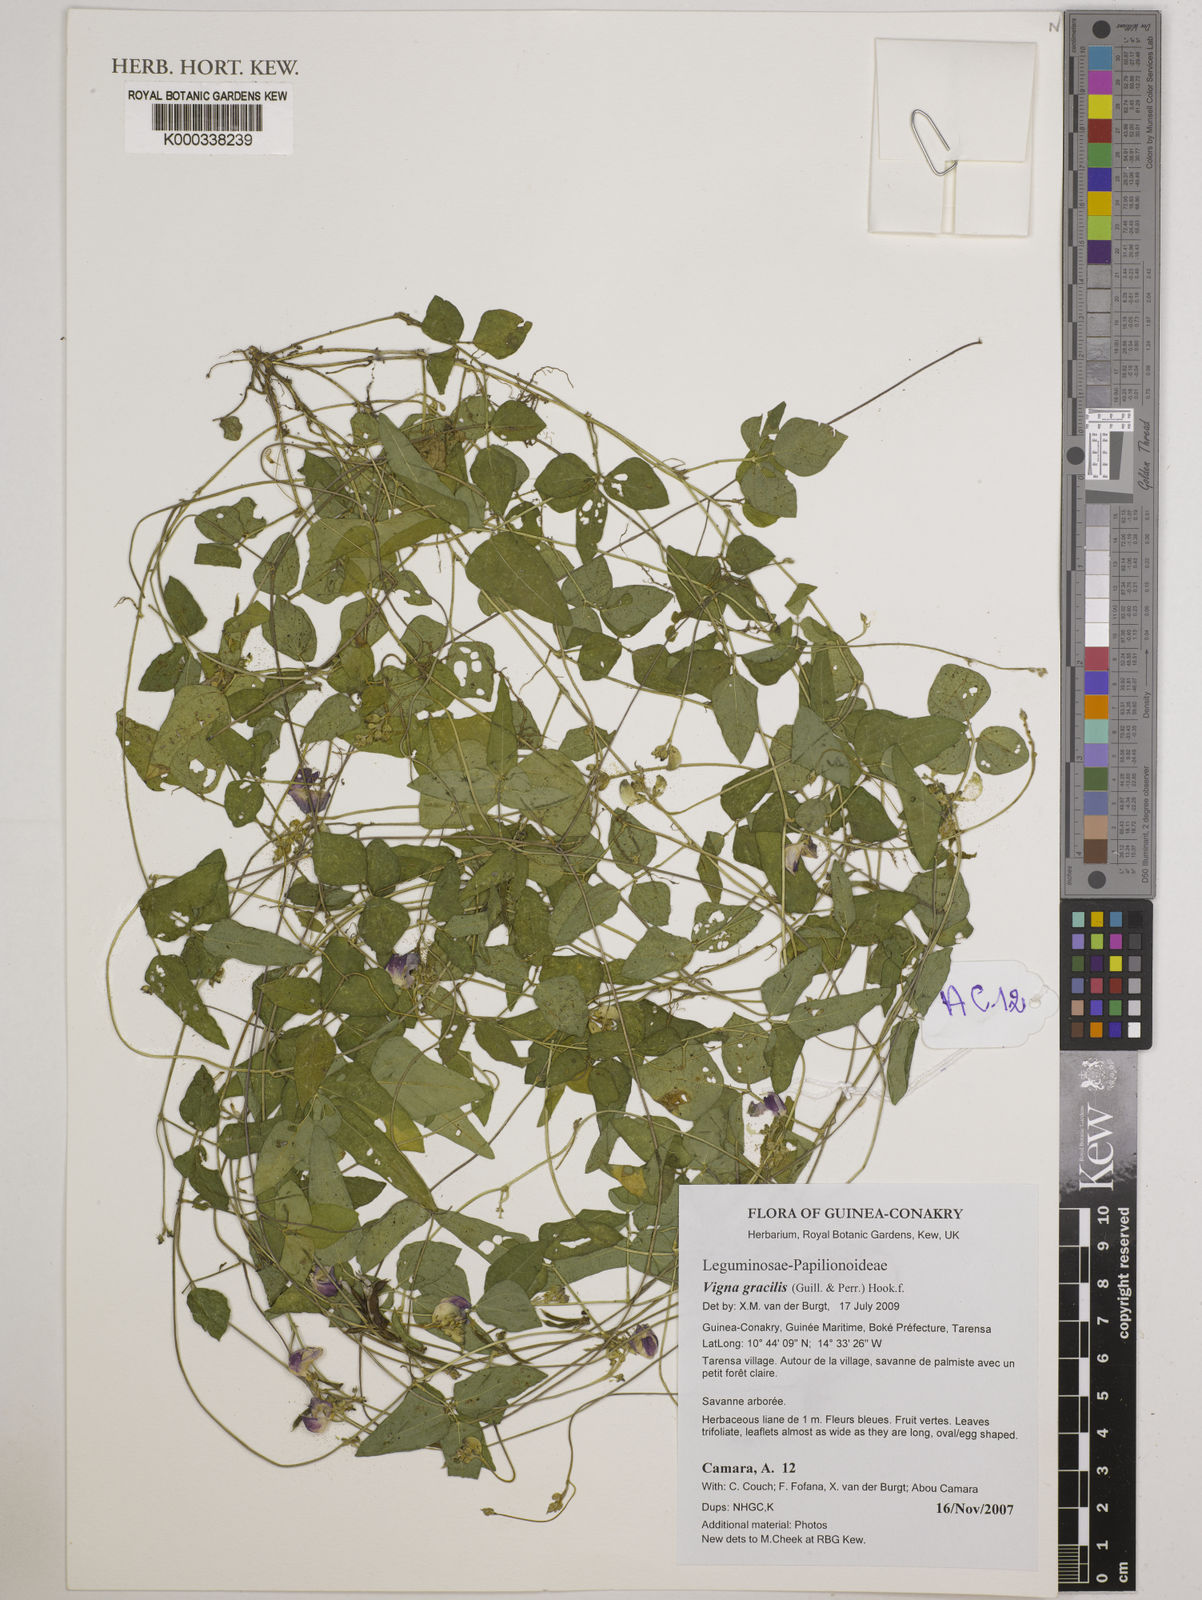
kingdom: Plantae
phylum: Tracheophyta
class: Magnoliopsida
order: Fabales
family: Fabaceae
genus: Vigna
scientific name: Vigna gracilis
